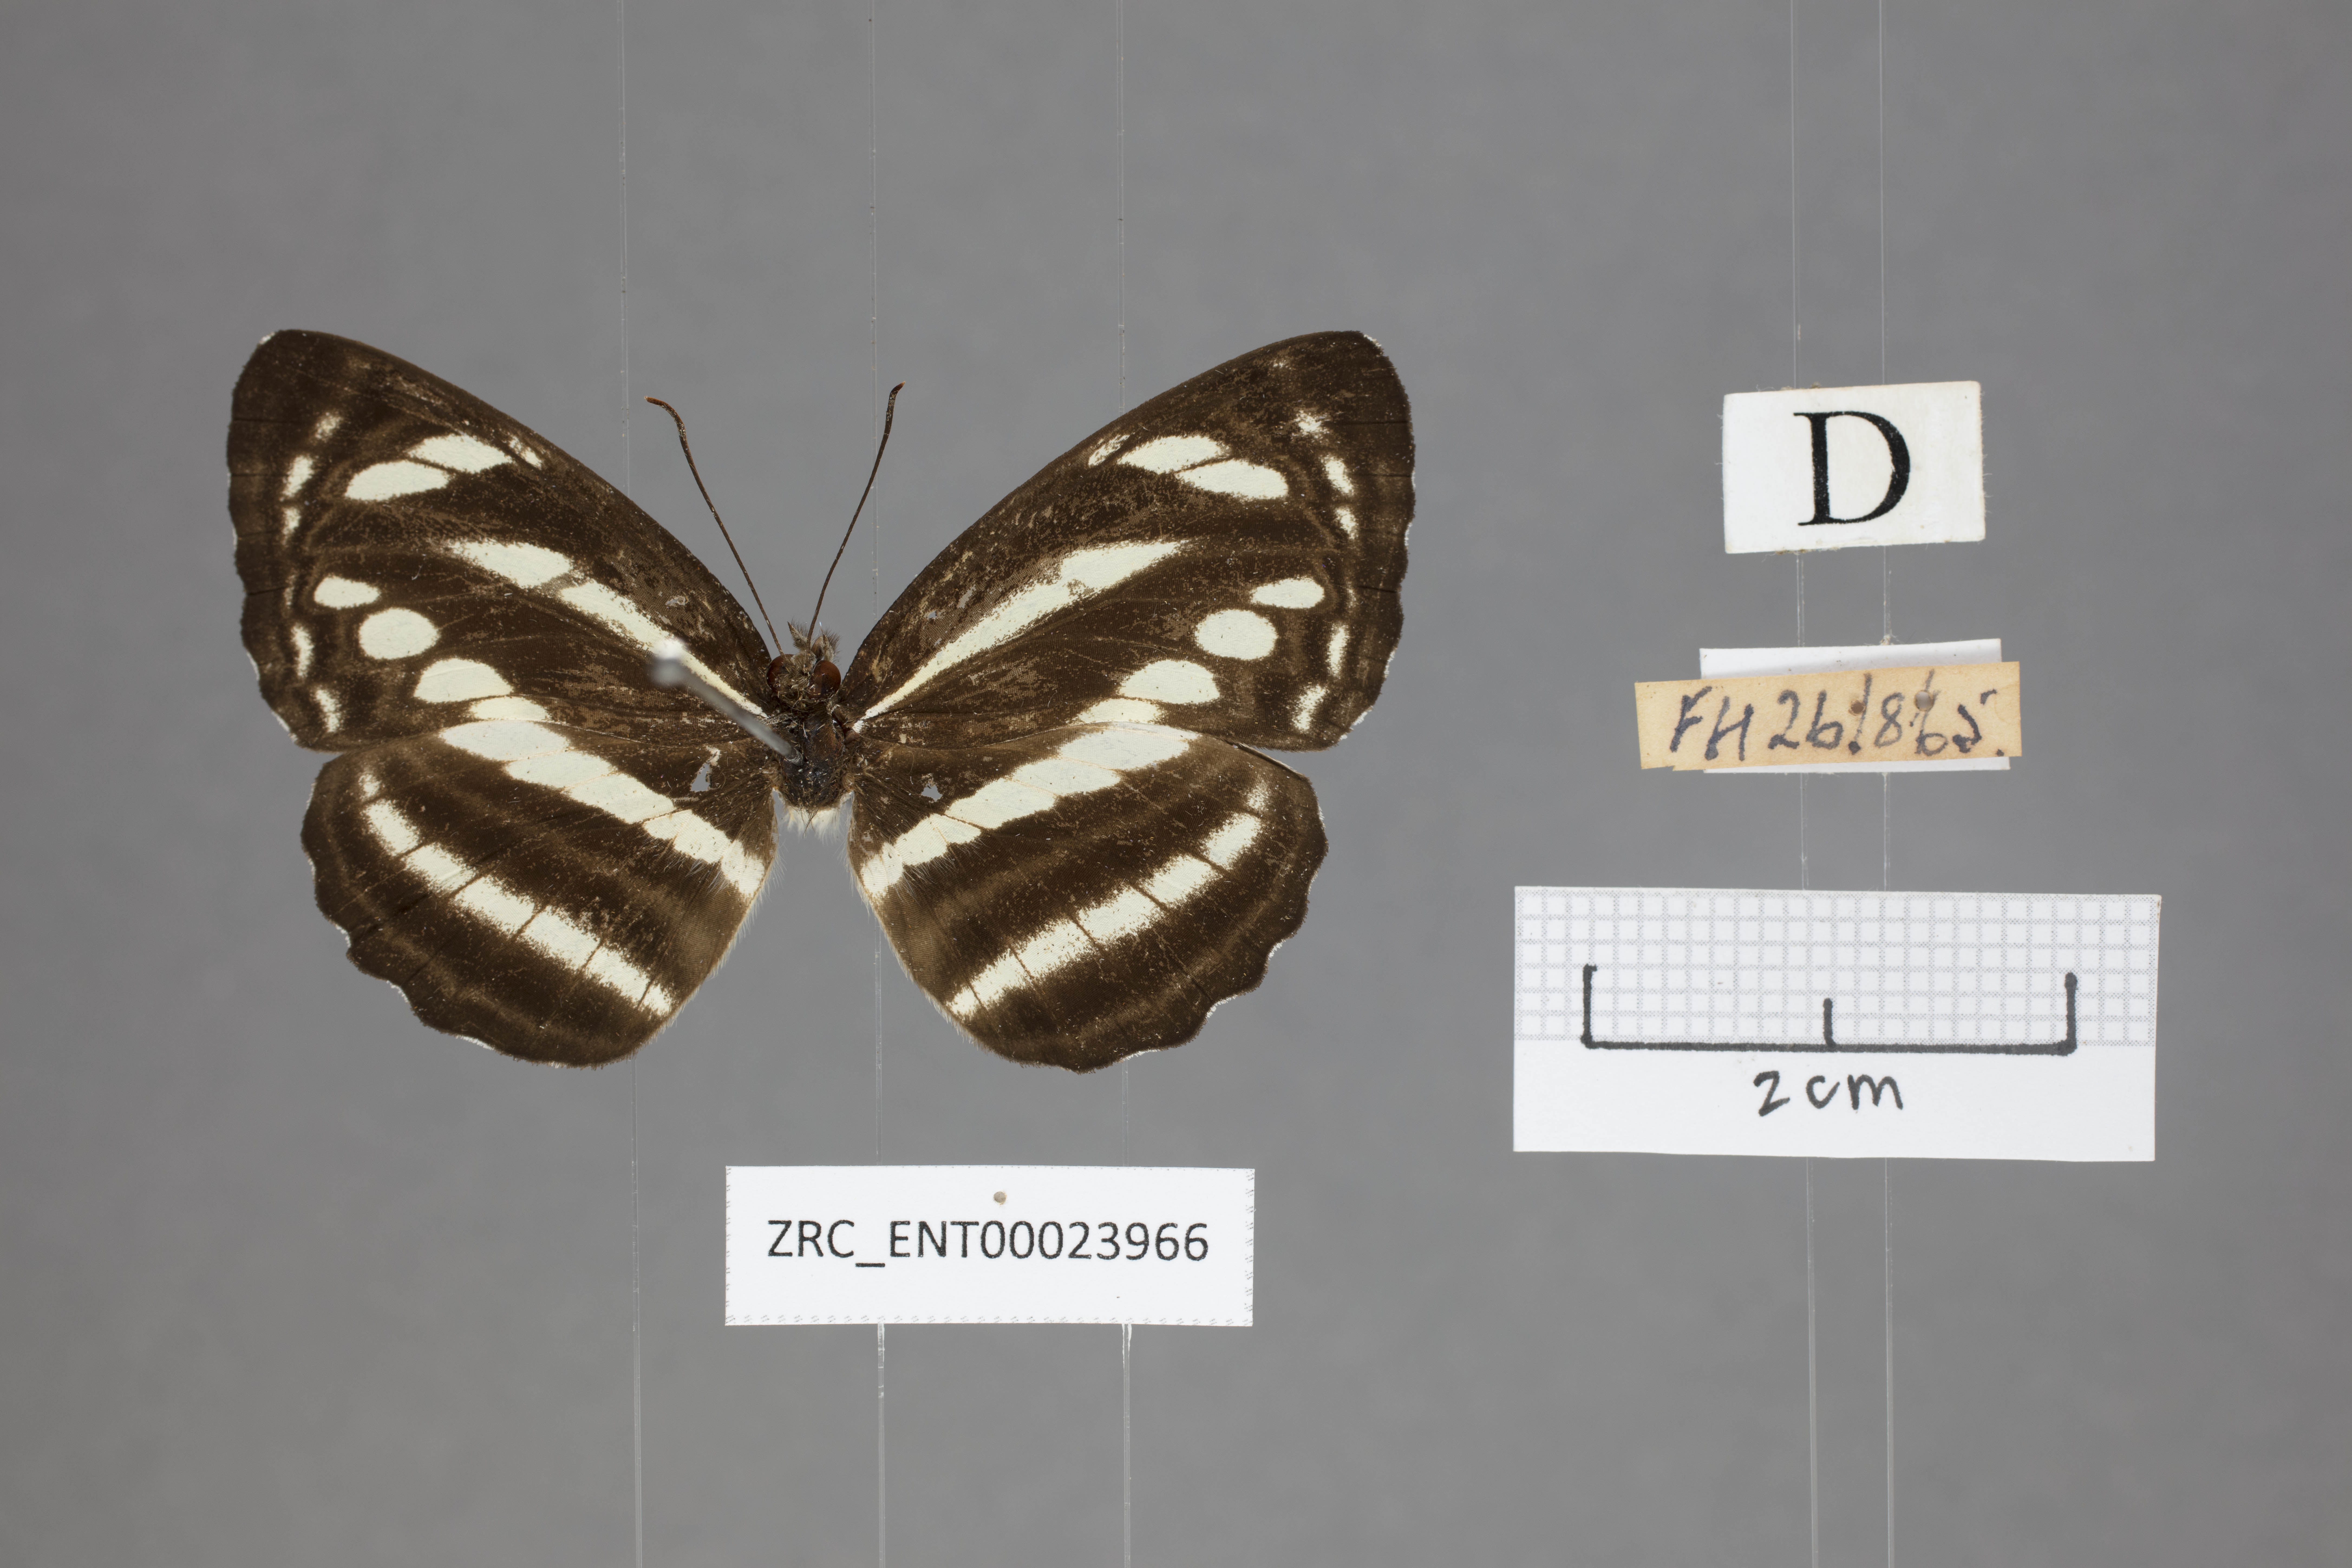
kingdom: Animalia
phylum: Arthropoda
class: Insecta
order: Lepidoptera
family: Nymphalidae
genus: Neptis
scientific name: Neptis clinioides
